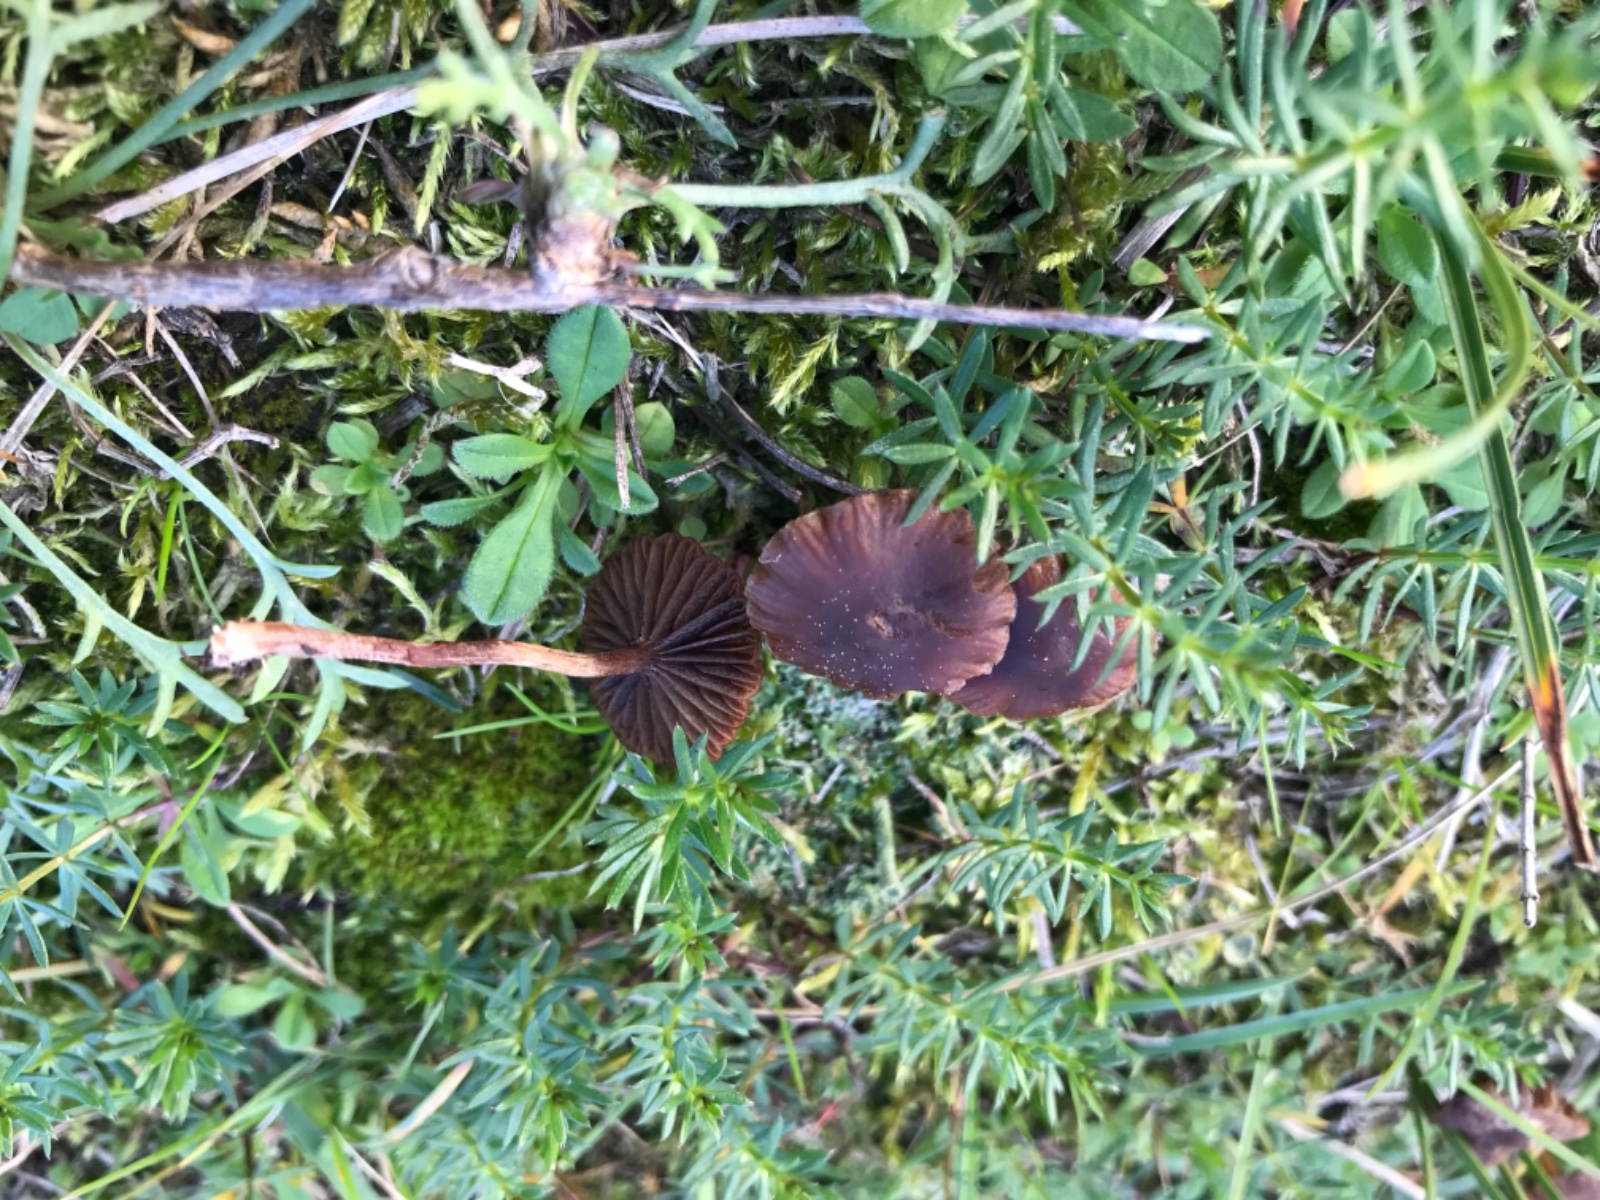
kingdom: Fungi
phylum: Basidiomycota
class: Agaricomycetes
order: Agaricales
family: Strophariaceae
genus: Deconica
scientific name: Deconica montana
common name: rødbrun stråhat
